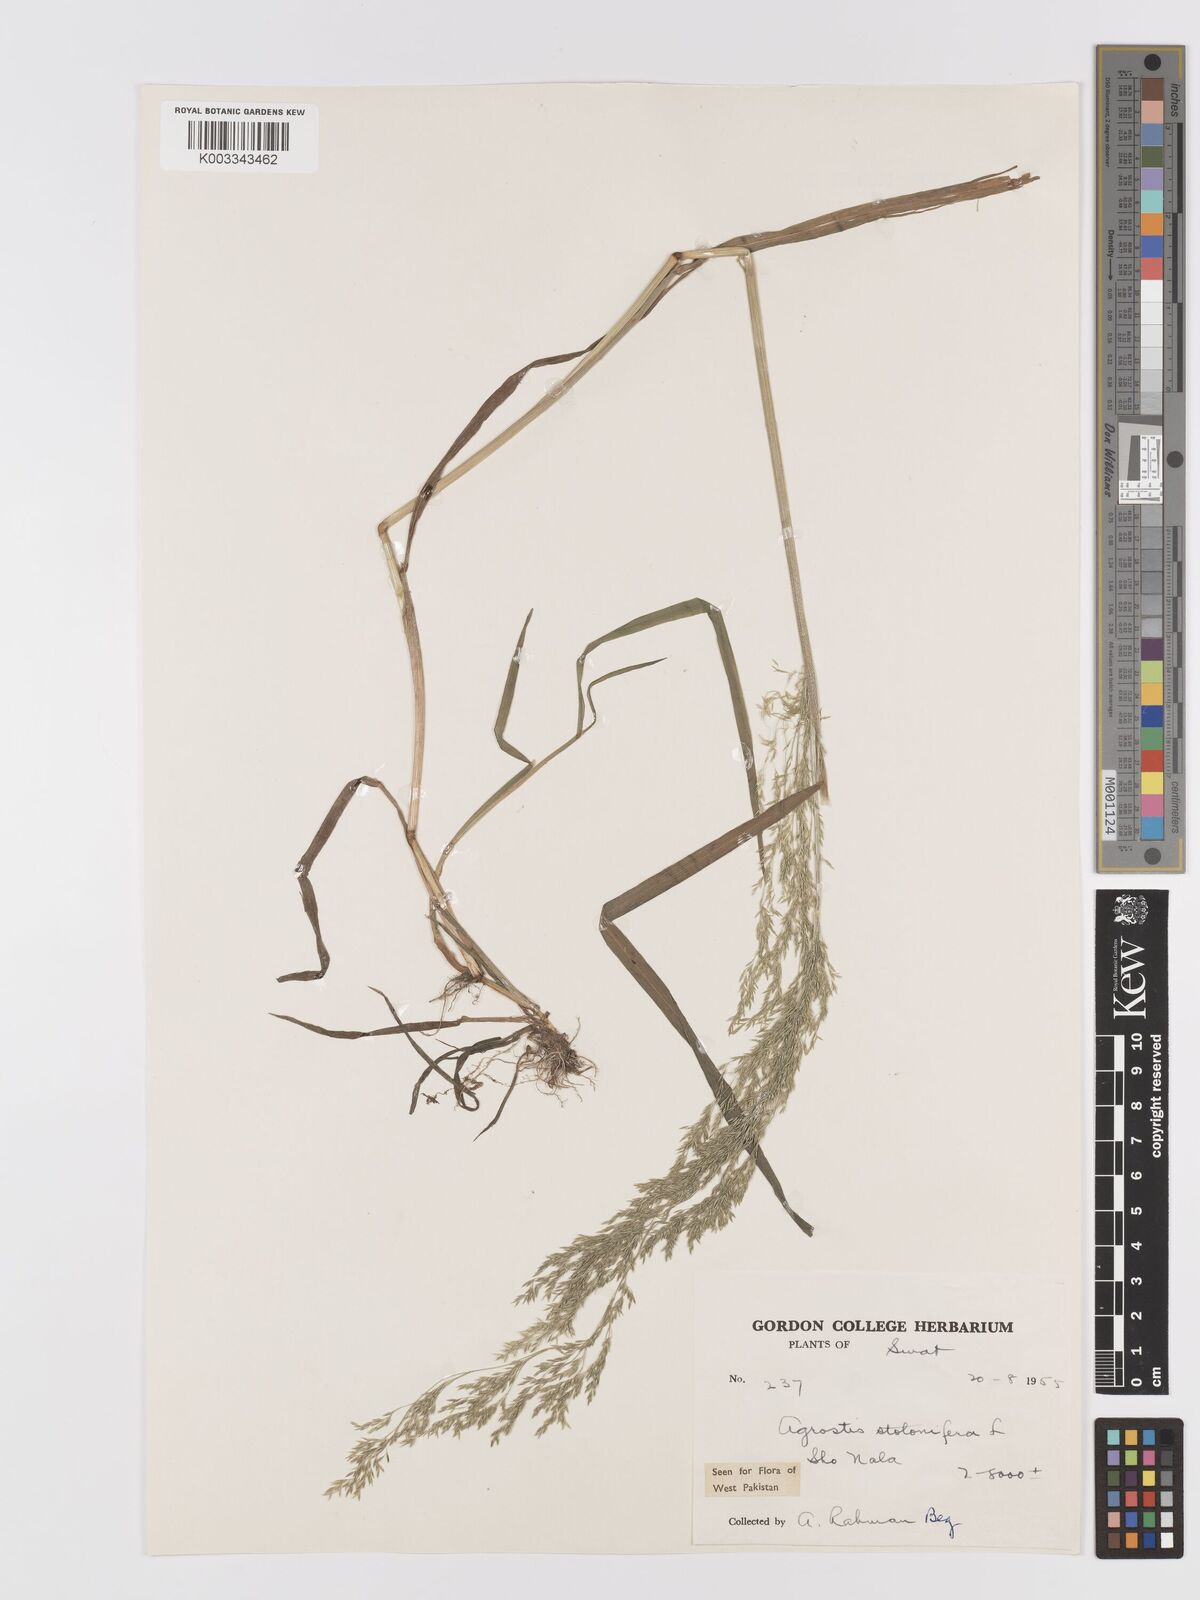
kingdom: Plantae
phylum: Tracheophyta
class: Liliopsida
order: Poales
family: Poaceae
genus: Agrostis
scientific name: Agrostis stolonifera
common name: Creeping bentgrass
